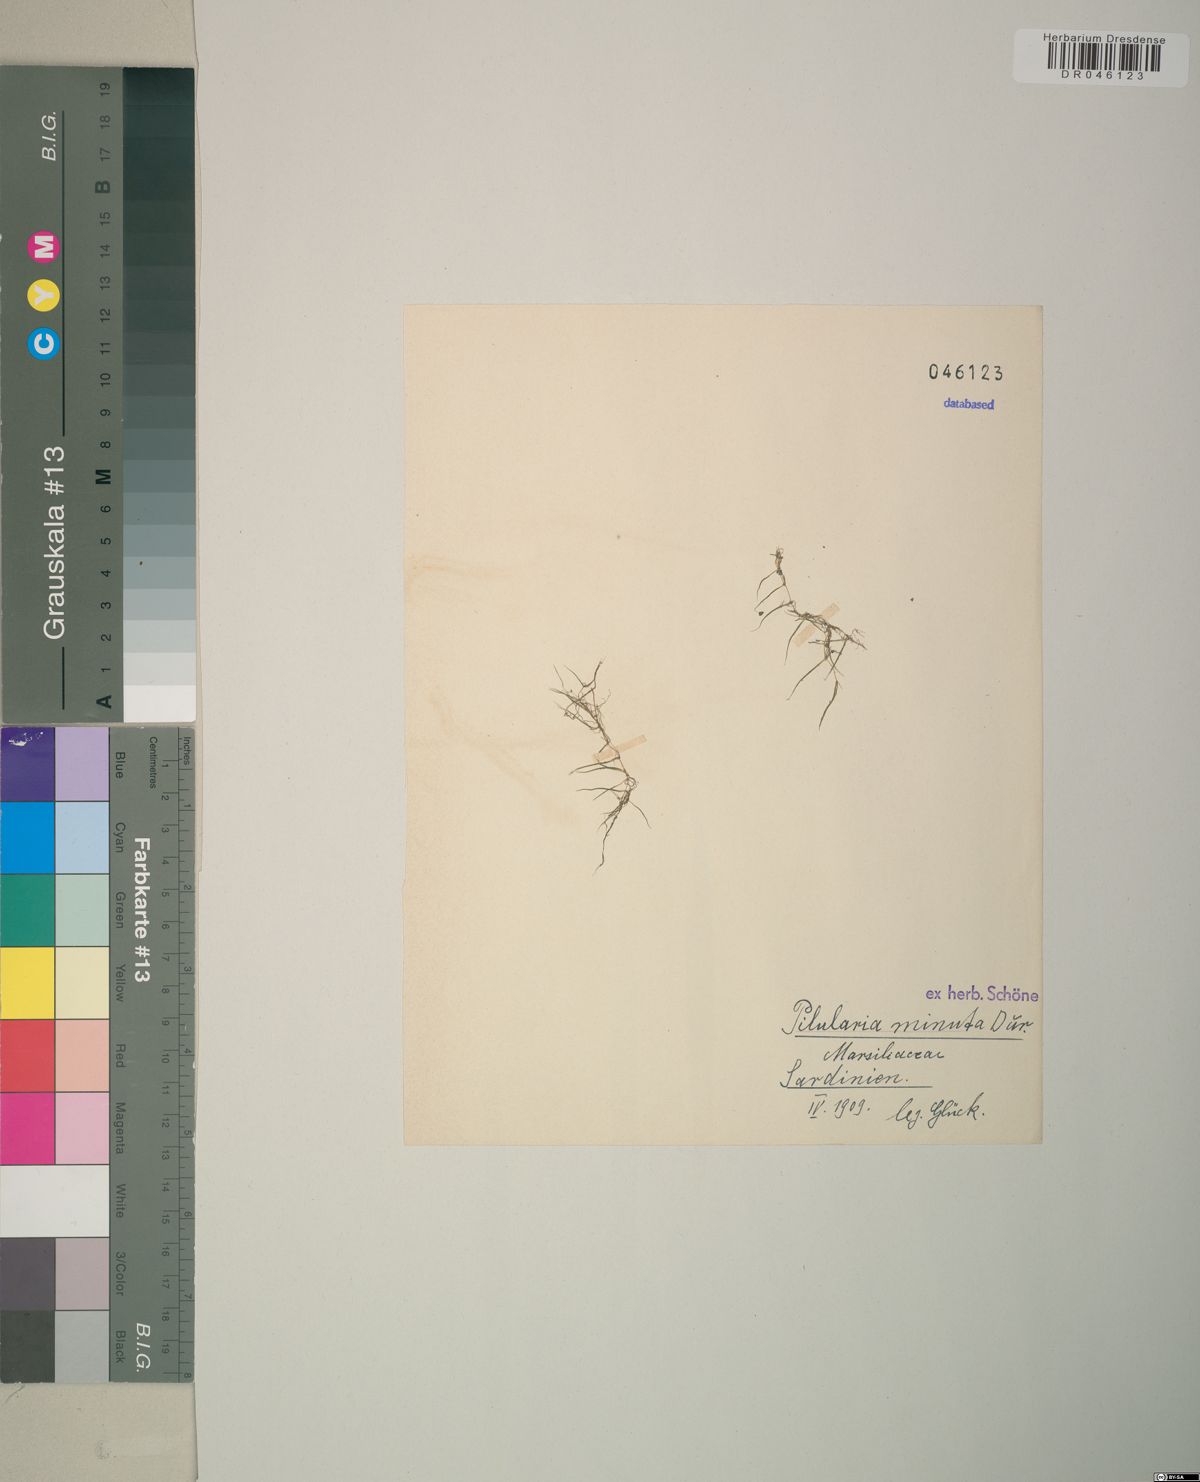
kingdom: Plantae
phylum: Tracheophyta
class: Polypodiopsida
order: Salviniales
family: Marsileaceae
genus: Pilularia
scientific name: Pilularia minuta
